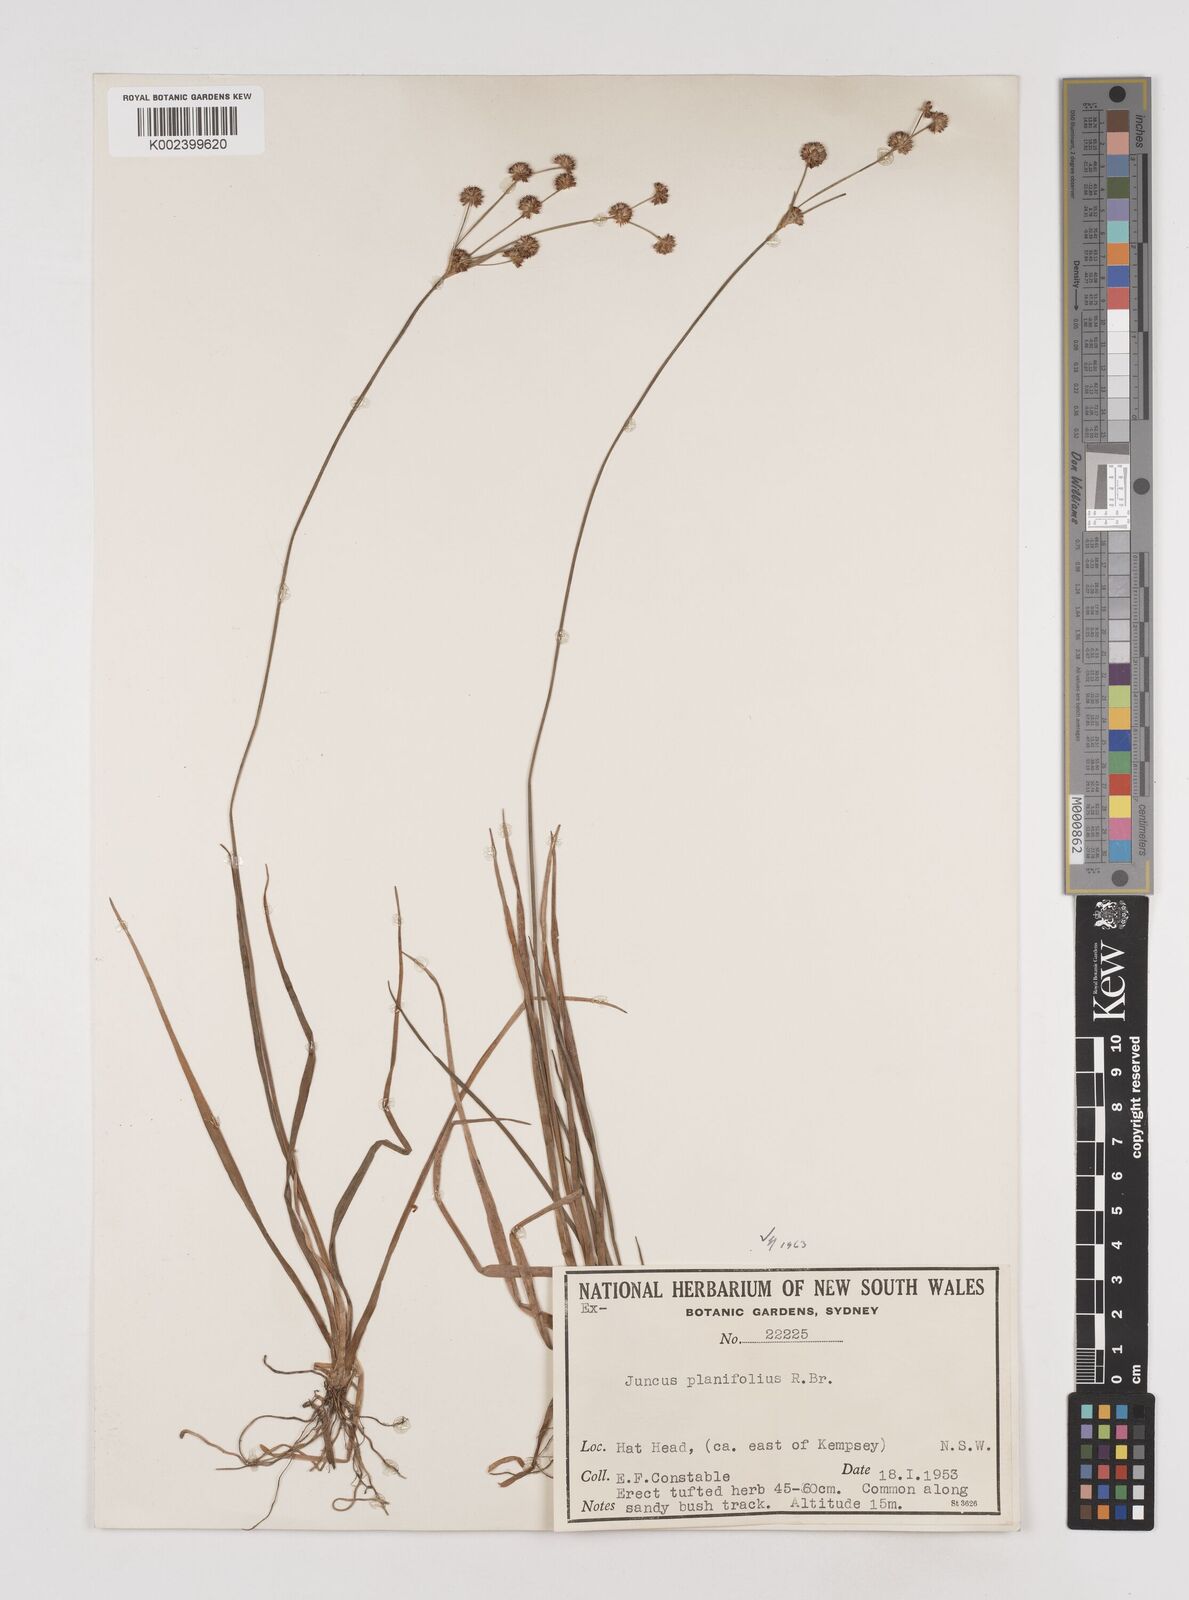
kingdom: Plantae
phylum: Tracheophyta
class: Liliopsida
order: Poales
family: Juncaceae
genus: Juncus
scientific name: Juncus planifolius
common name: Broadleaf rush
